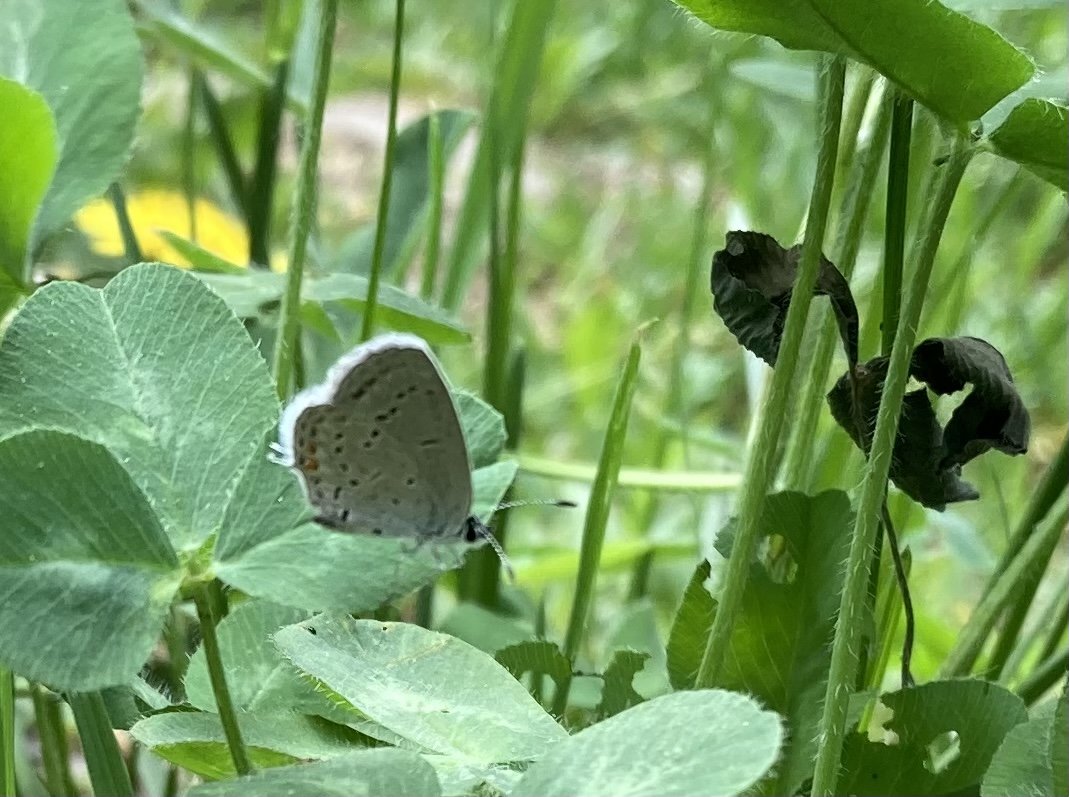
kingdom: Animalia
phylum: Arthropoda
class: Insecta
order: Lepidoptera
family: Lycaenidae
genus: Elkalyce
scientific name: Elkalyce comyntas
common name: Eastern Tailed-Blue
